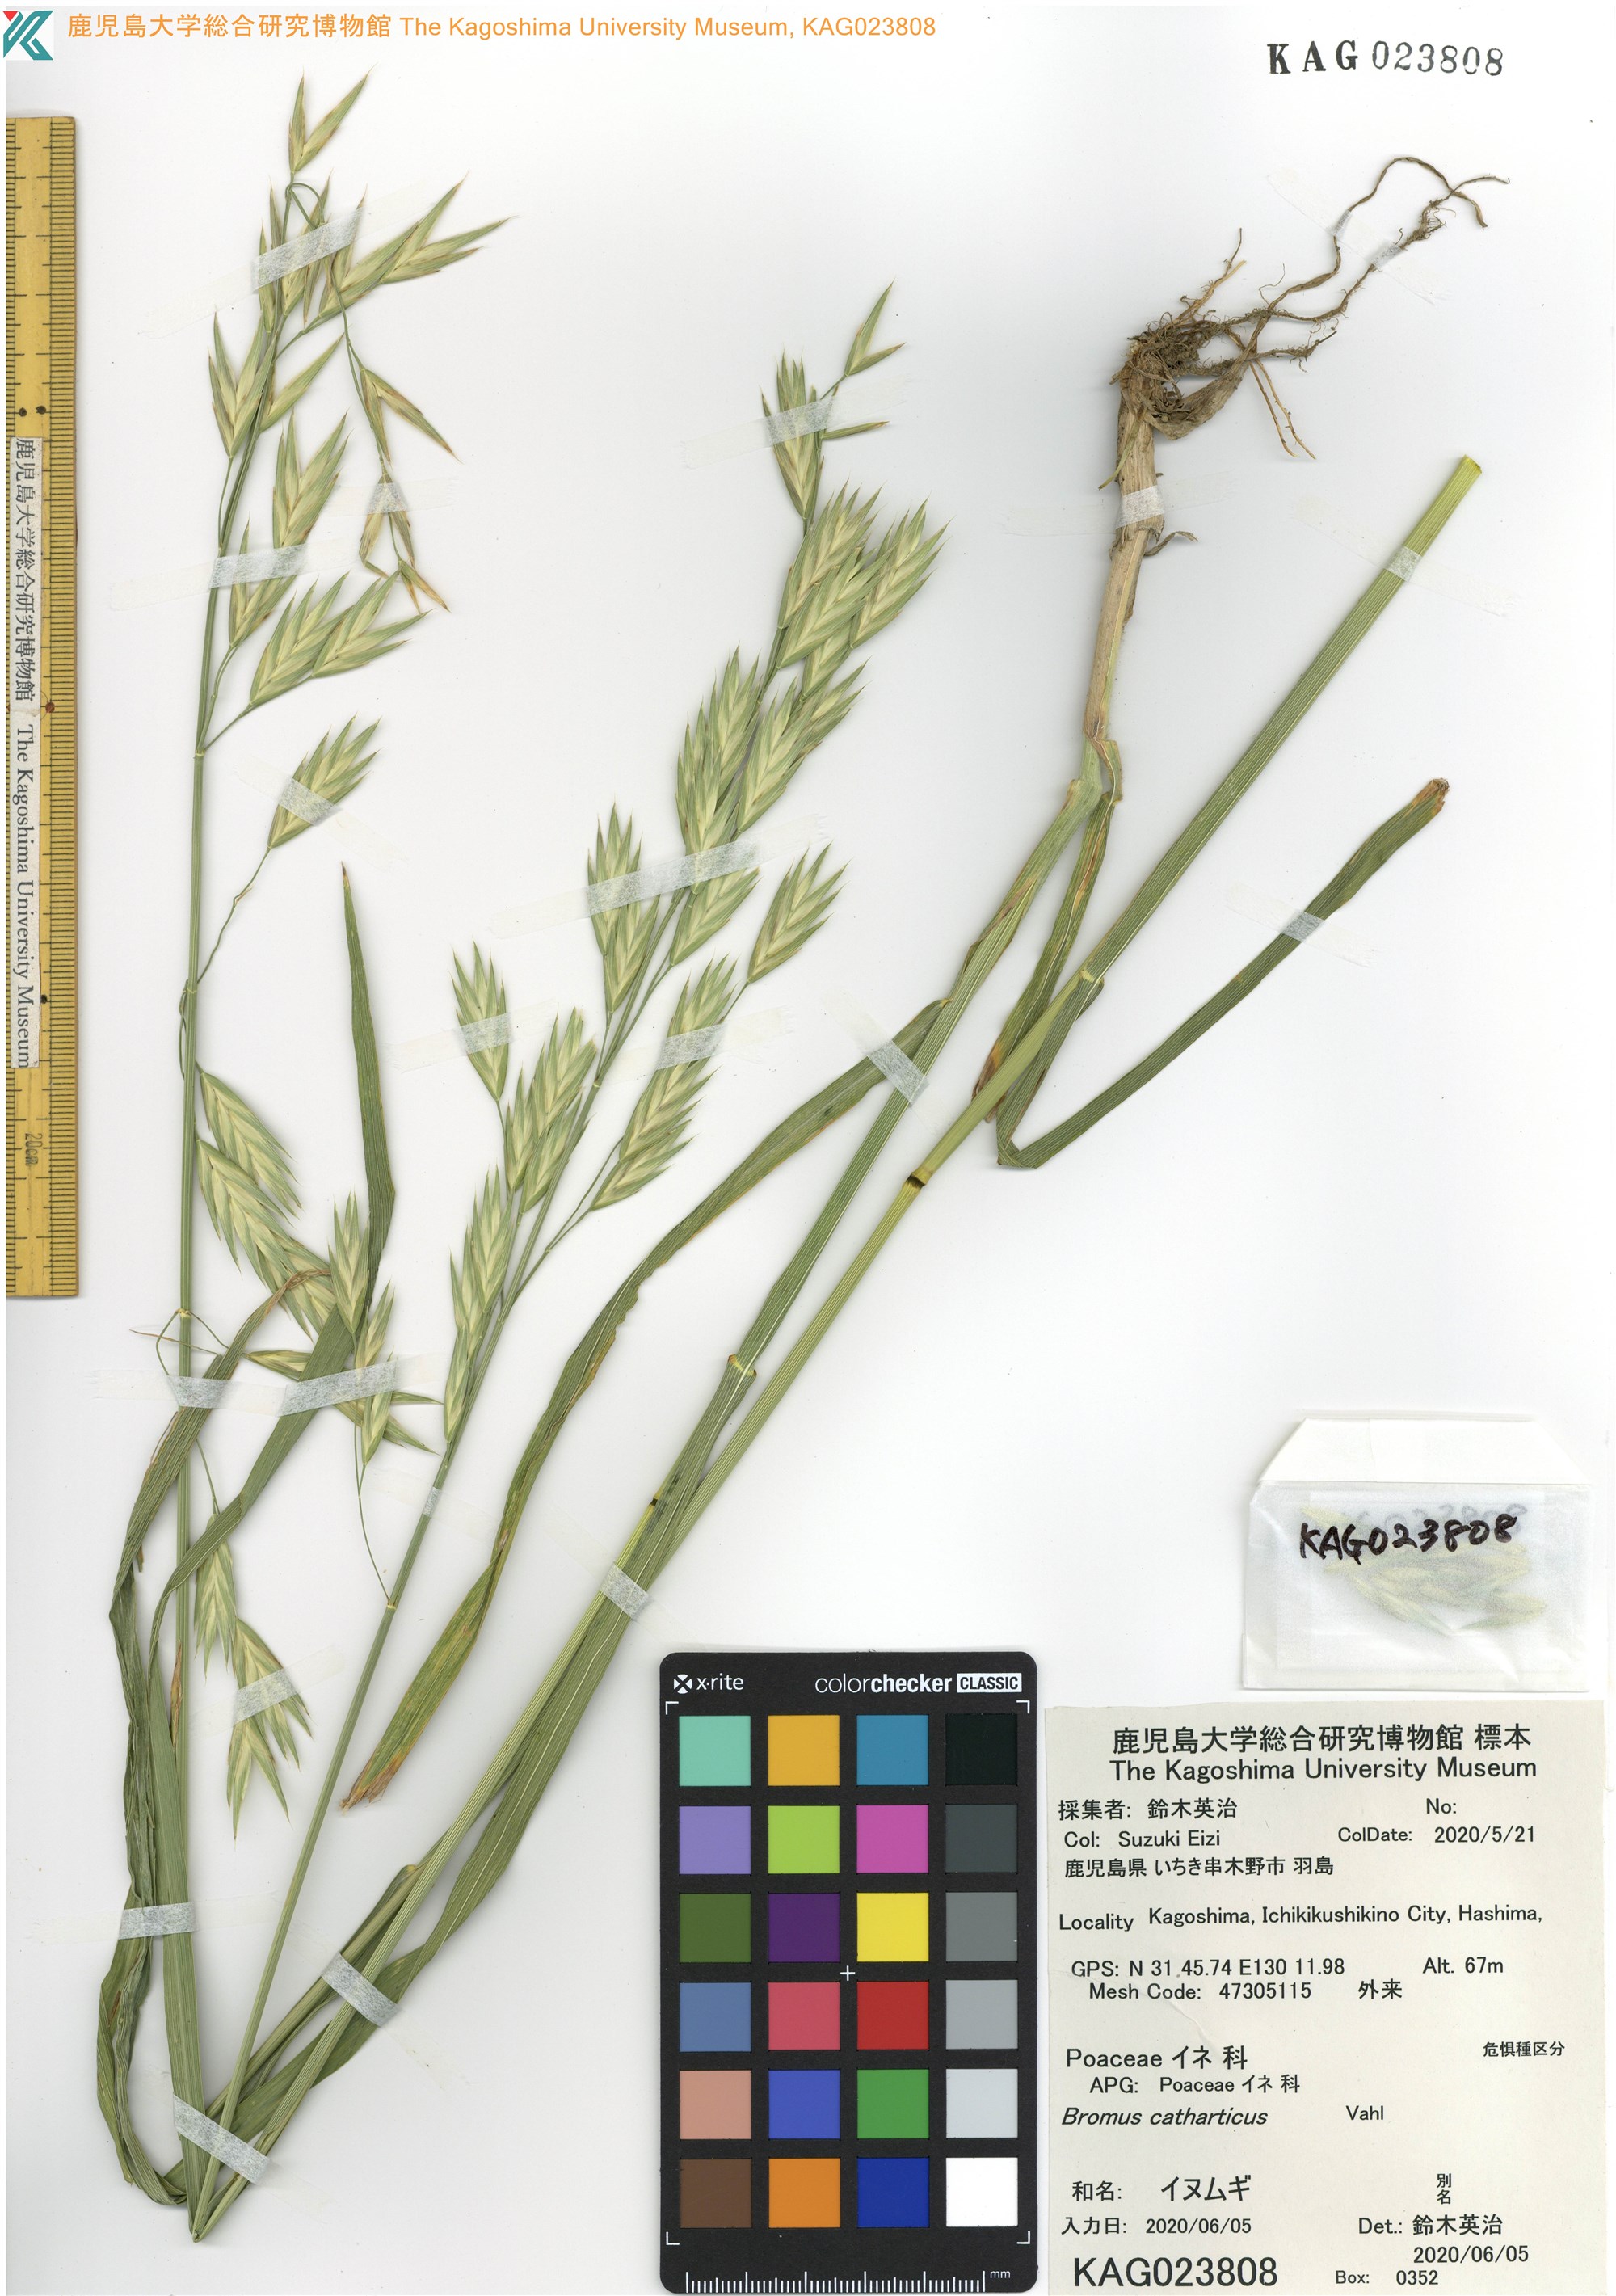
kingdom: Plantae
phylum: Tracheophyta
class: Liliopsida
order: Poales
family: Poaceae
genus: Bromus
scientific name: Bromus catharticus
